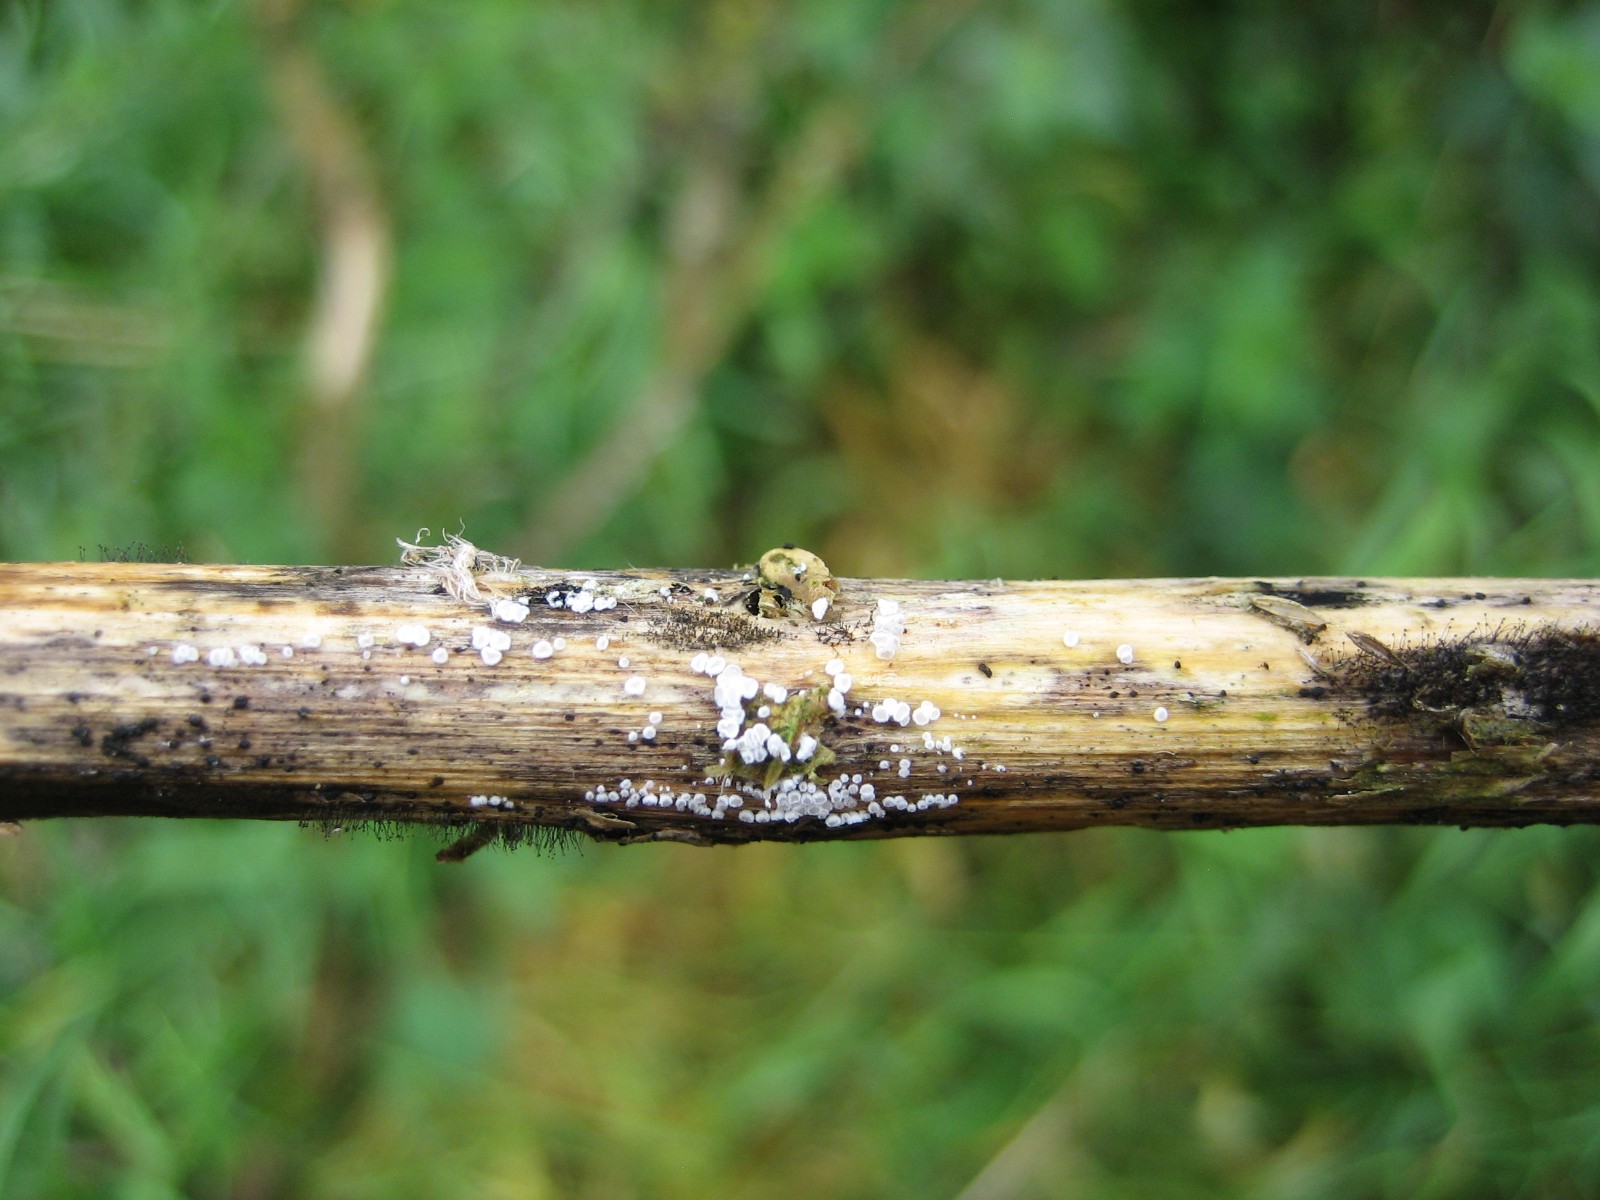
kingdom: Fungi
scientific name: Fungi
